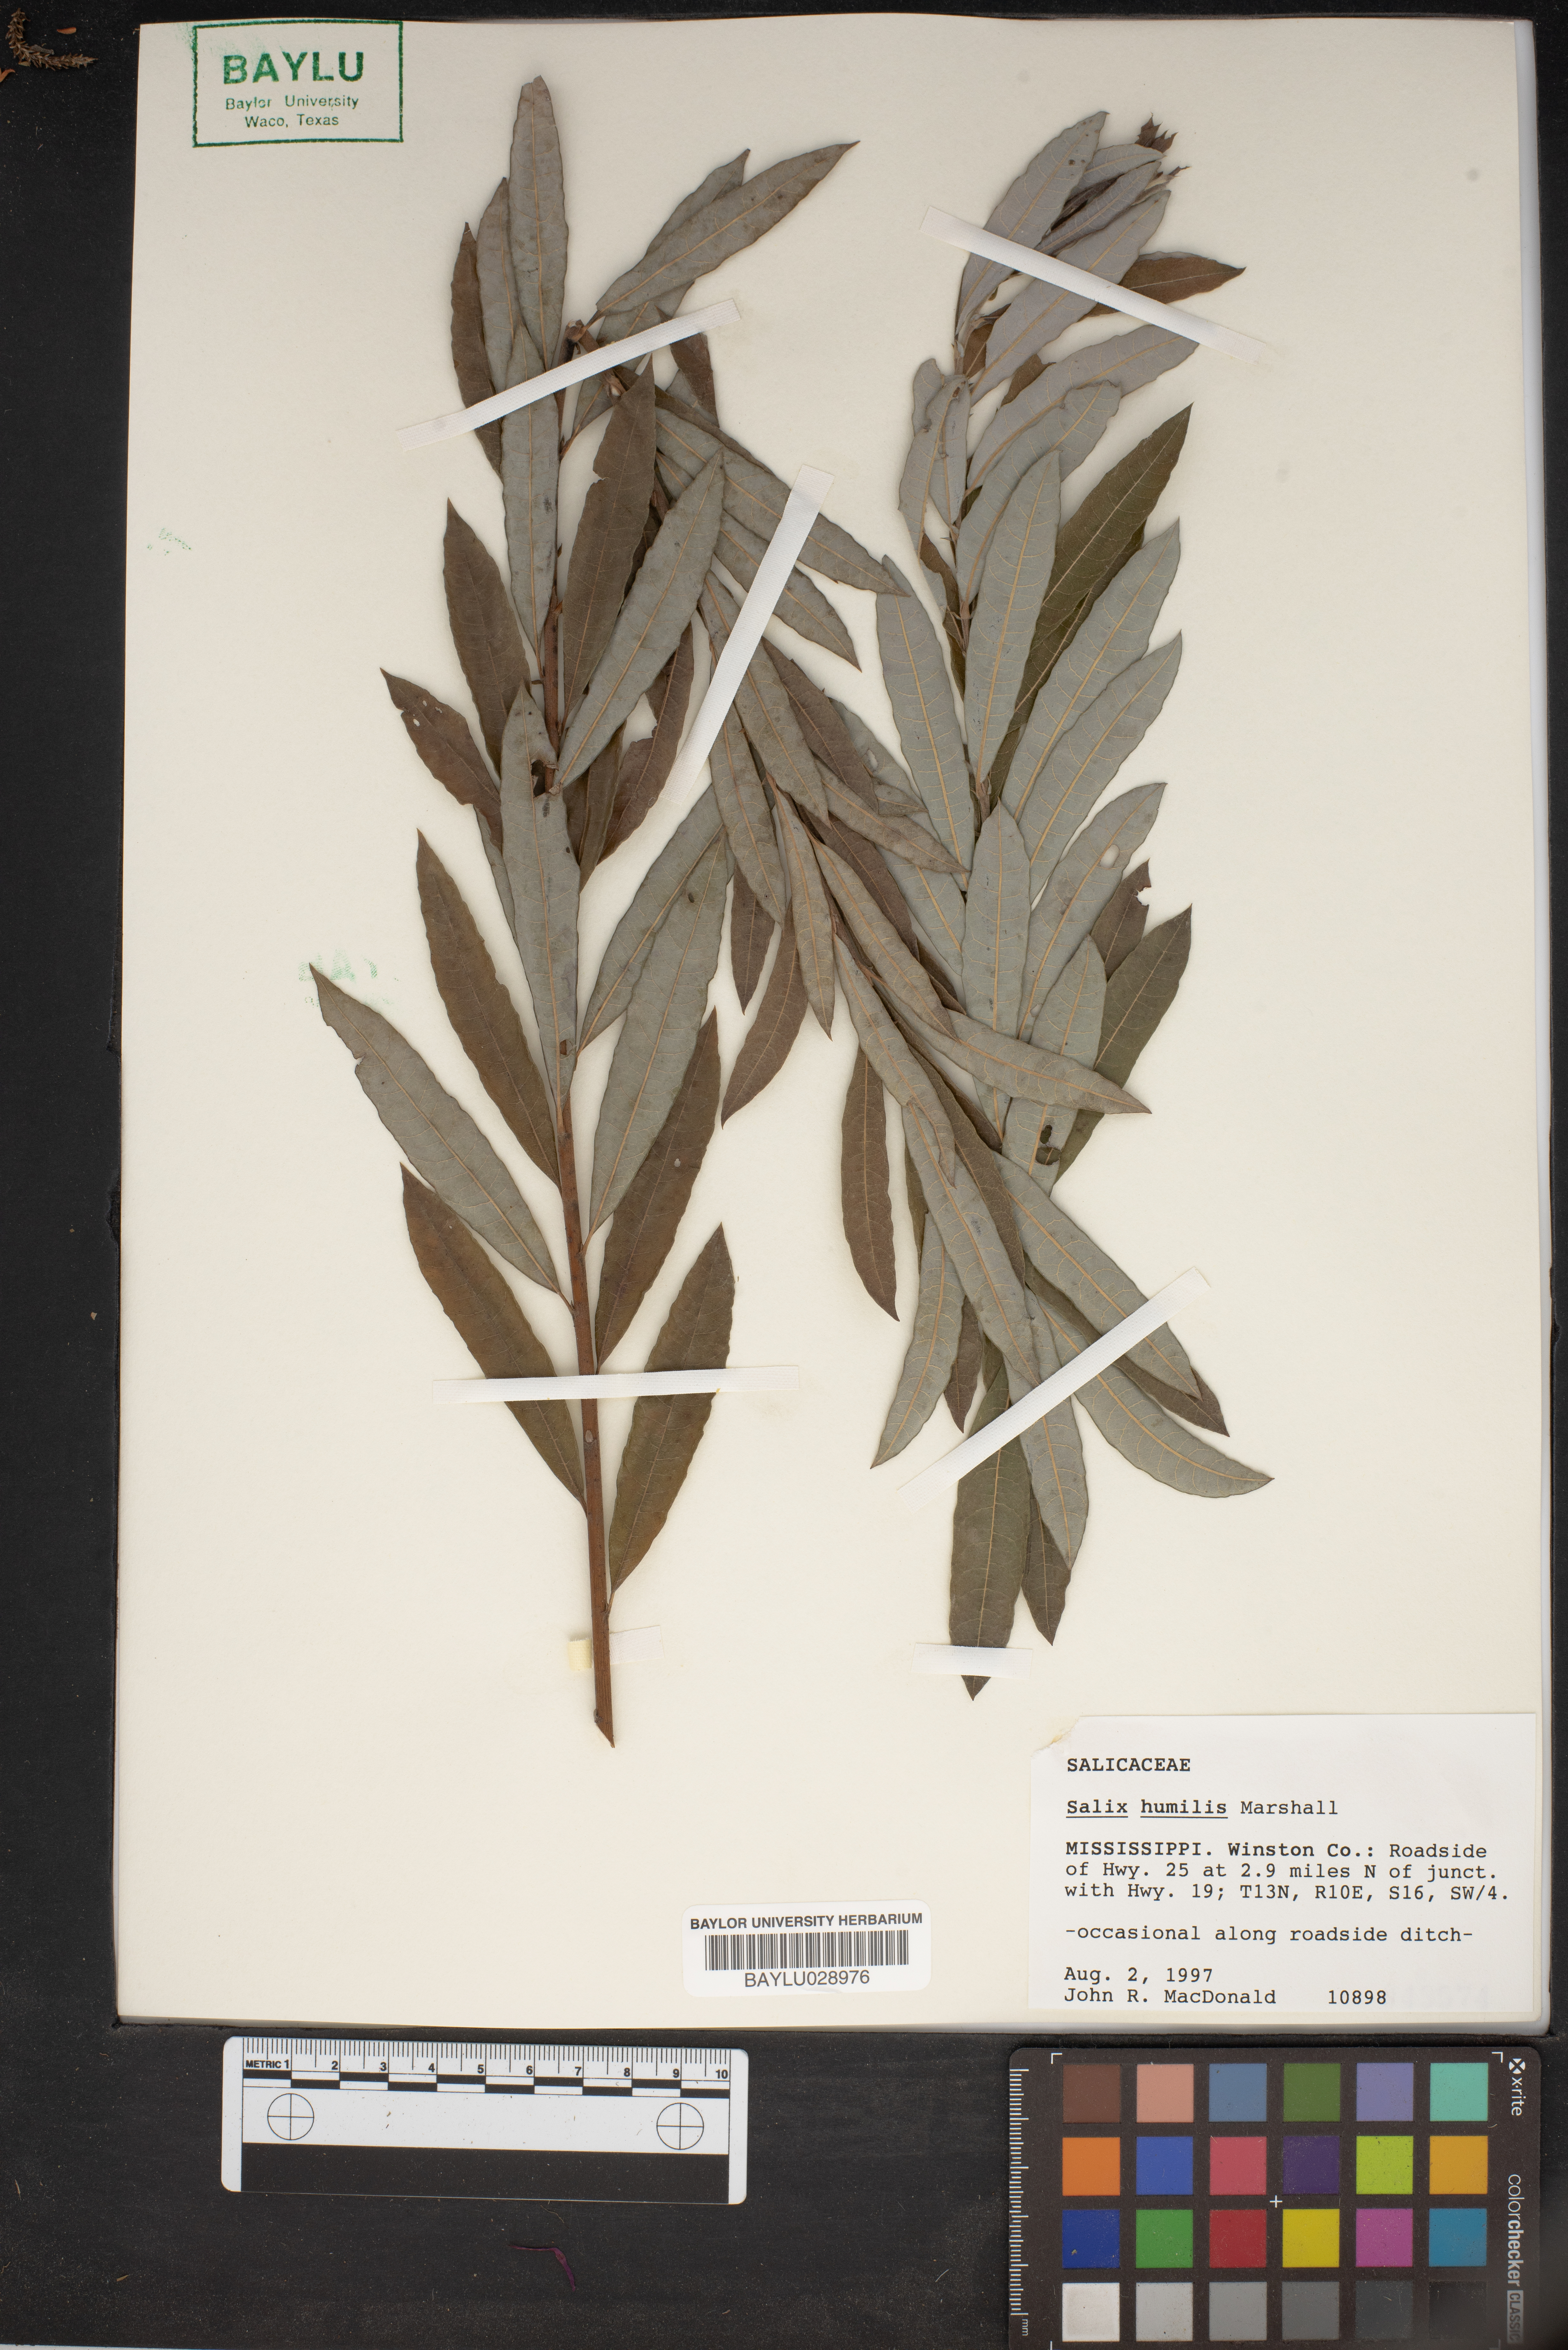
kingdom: Plantae
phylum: Tracheophyta
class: Magnoliopsida
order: Malpighiales
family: Salicaceae
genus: Salix
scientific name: Salix humilis
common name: Prairie willow
